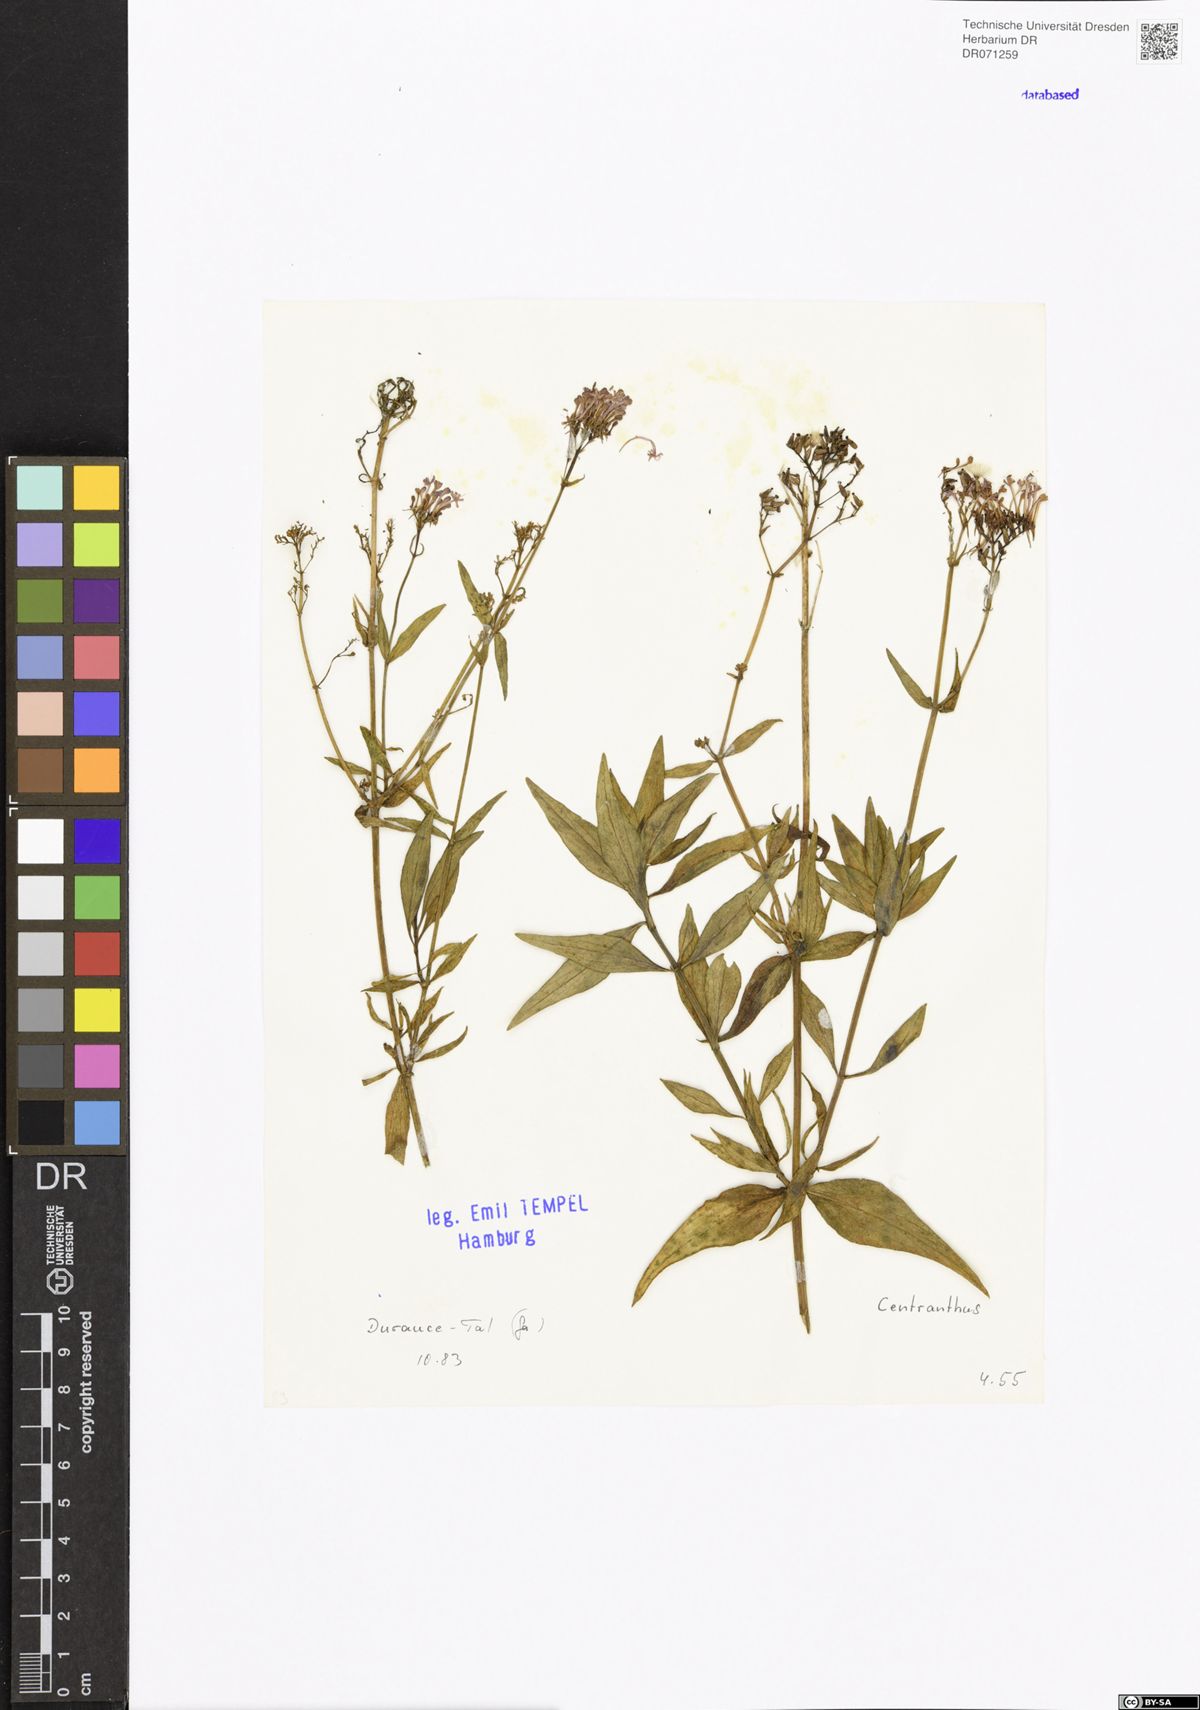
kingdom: Plantae
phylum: Tracheophyta
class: Magnoliopsida
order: Dipsacales
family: Caprifoliaceae
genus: Centranthus
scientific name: Centranthus
